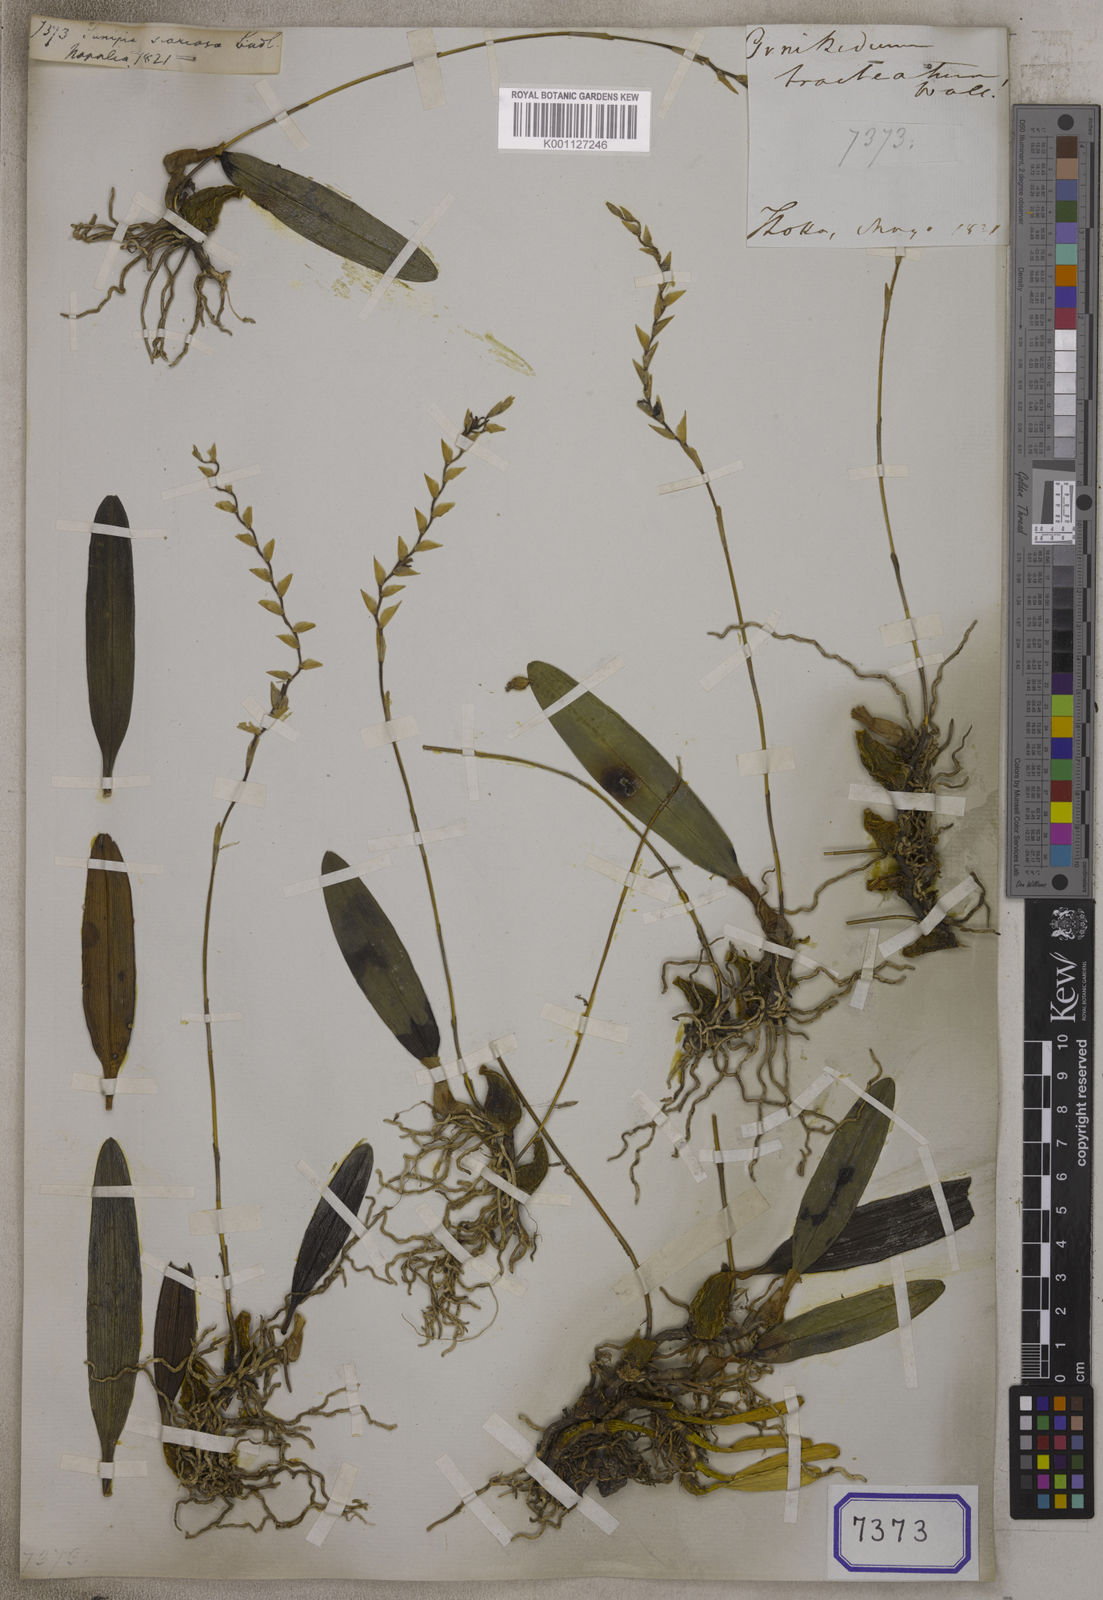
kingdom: Plantae
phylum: Tracheophyta
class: Liliopsida
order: Asparagales
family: Orchidaceae
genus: Bulbophyllum
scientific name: Bulbophyllum sunipia
